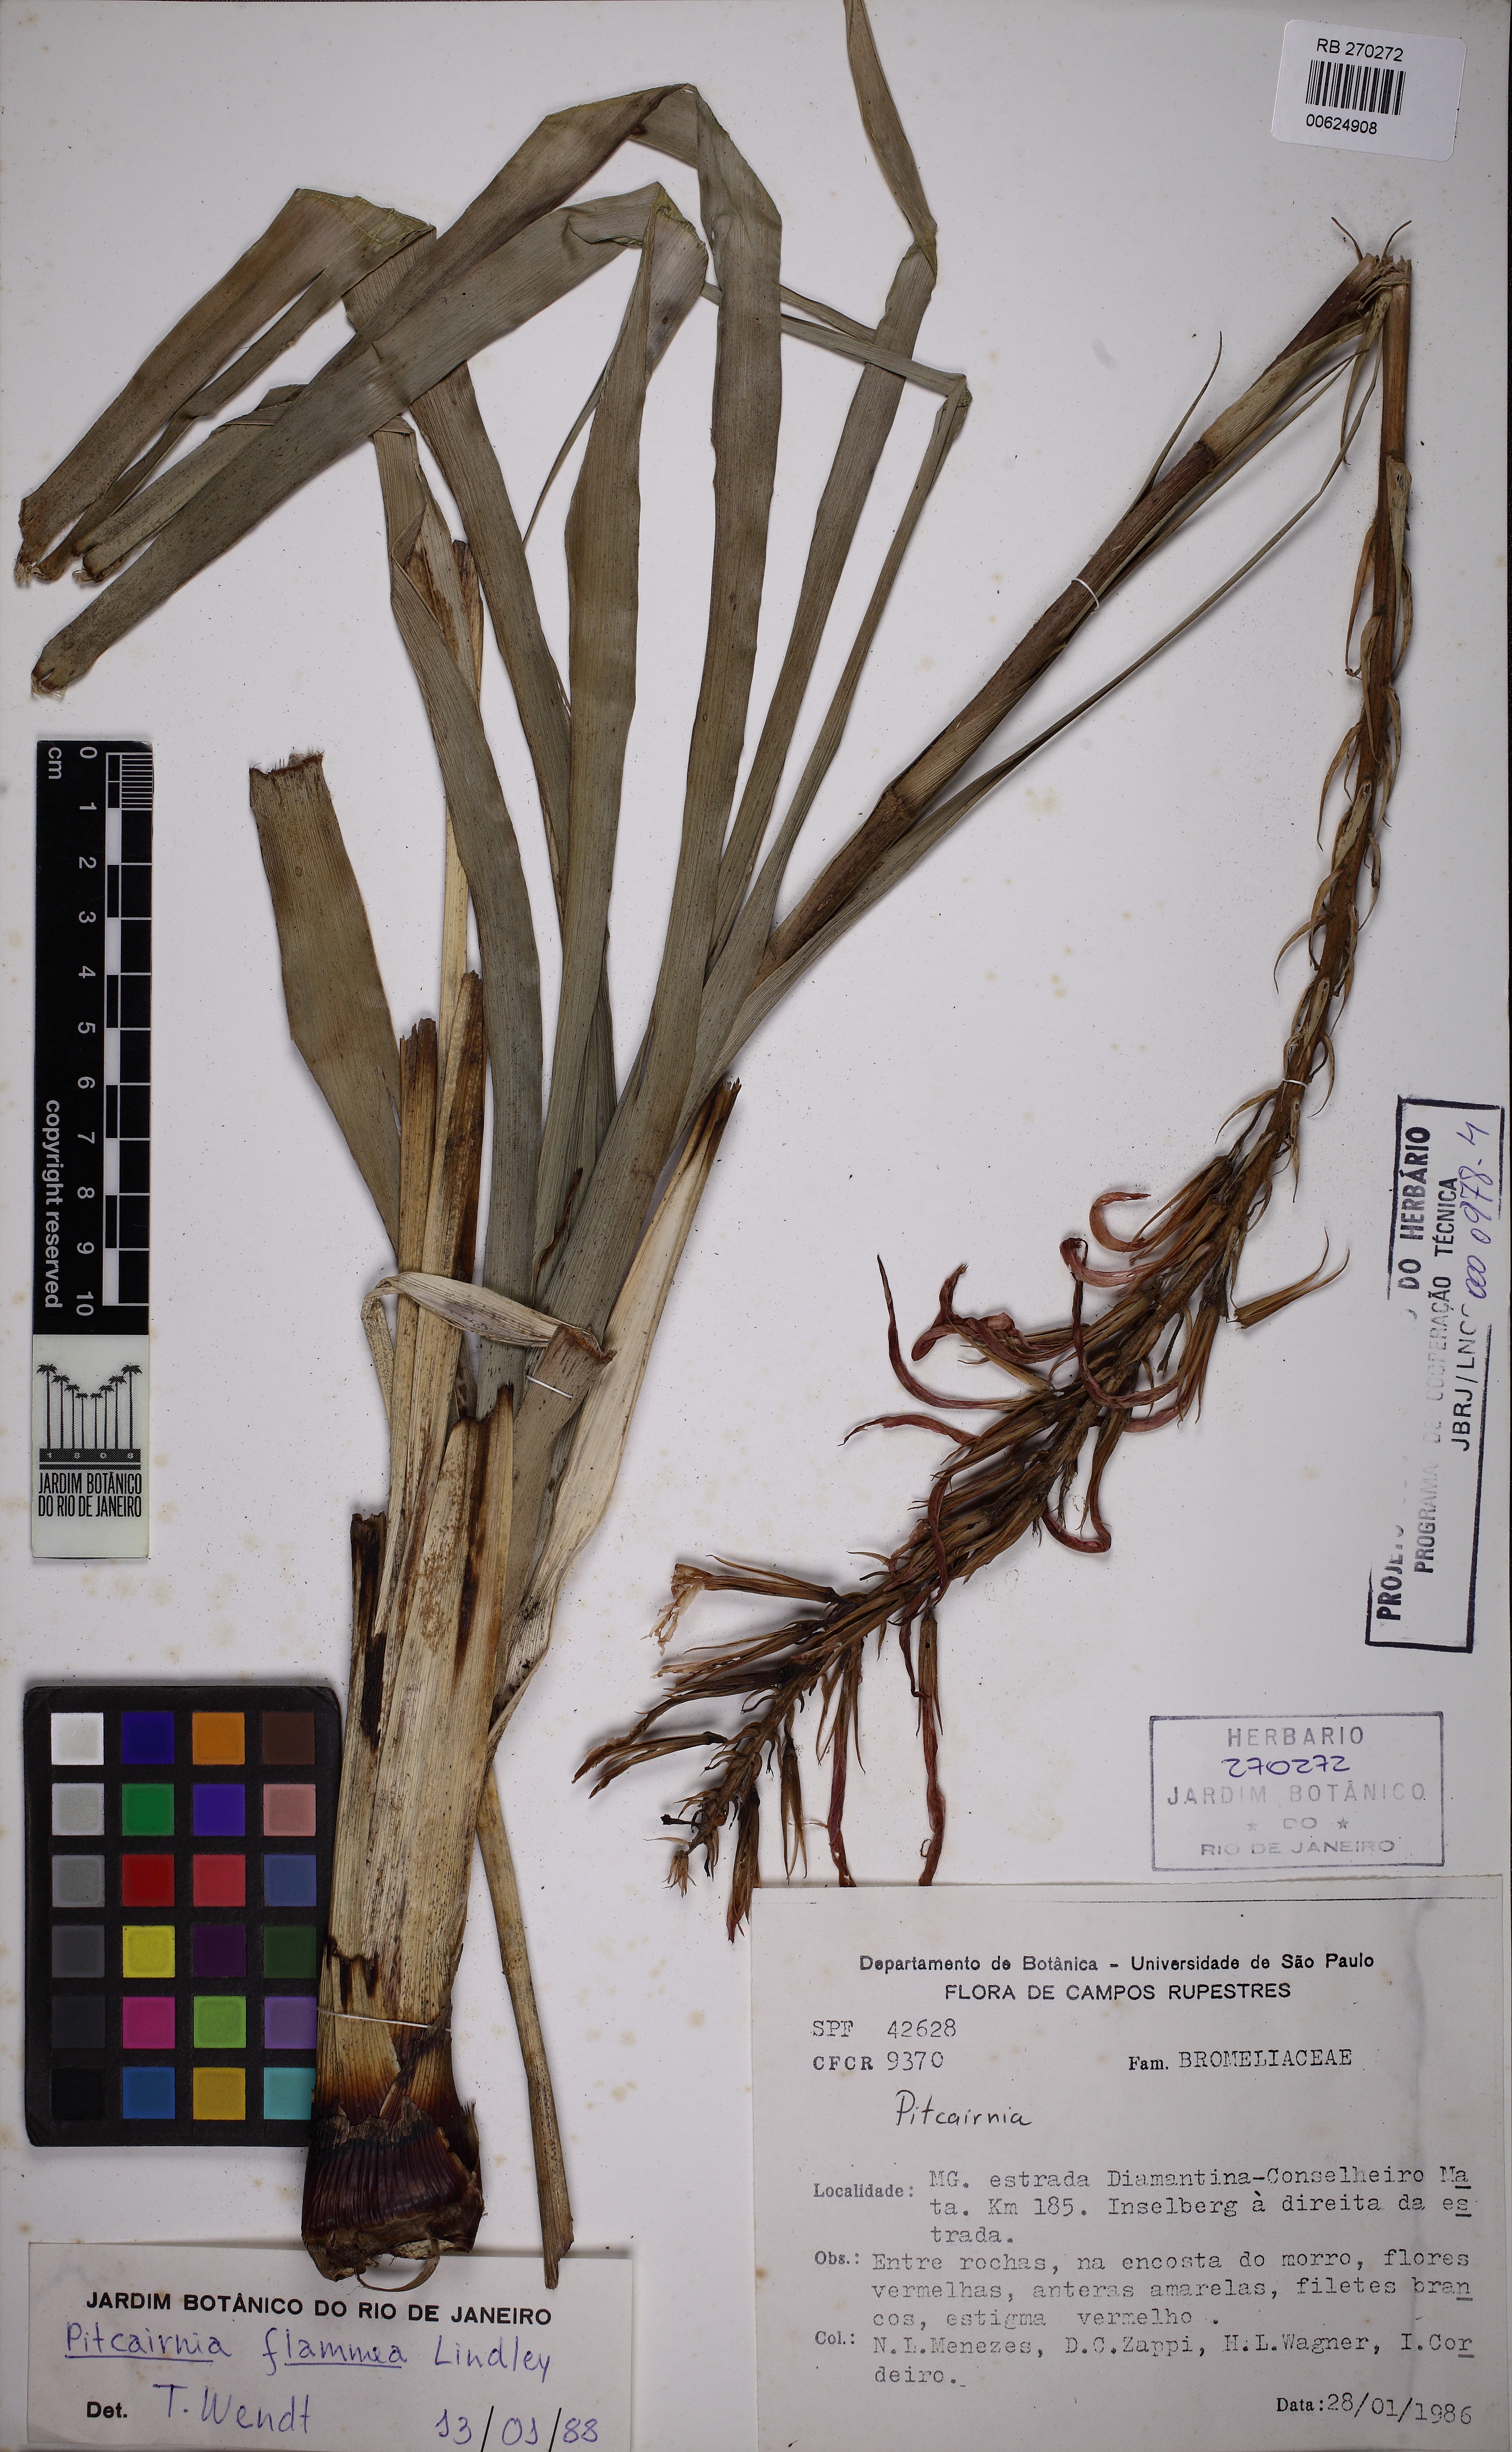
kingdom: Plantae
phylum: Tracheophyta
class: Liliopsida
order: Poales
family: Bromeliaceae
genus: Pitcairnia
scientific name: Pitcairnia flammea
